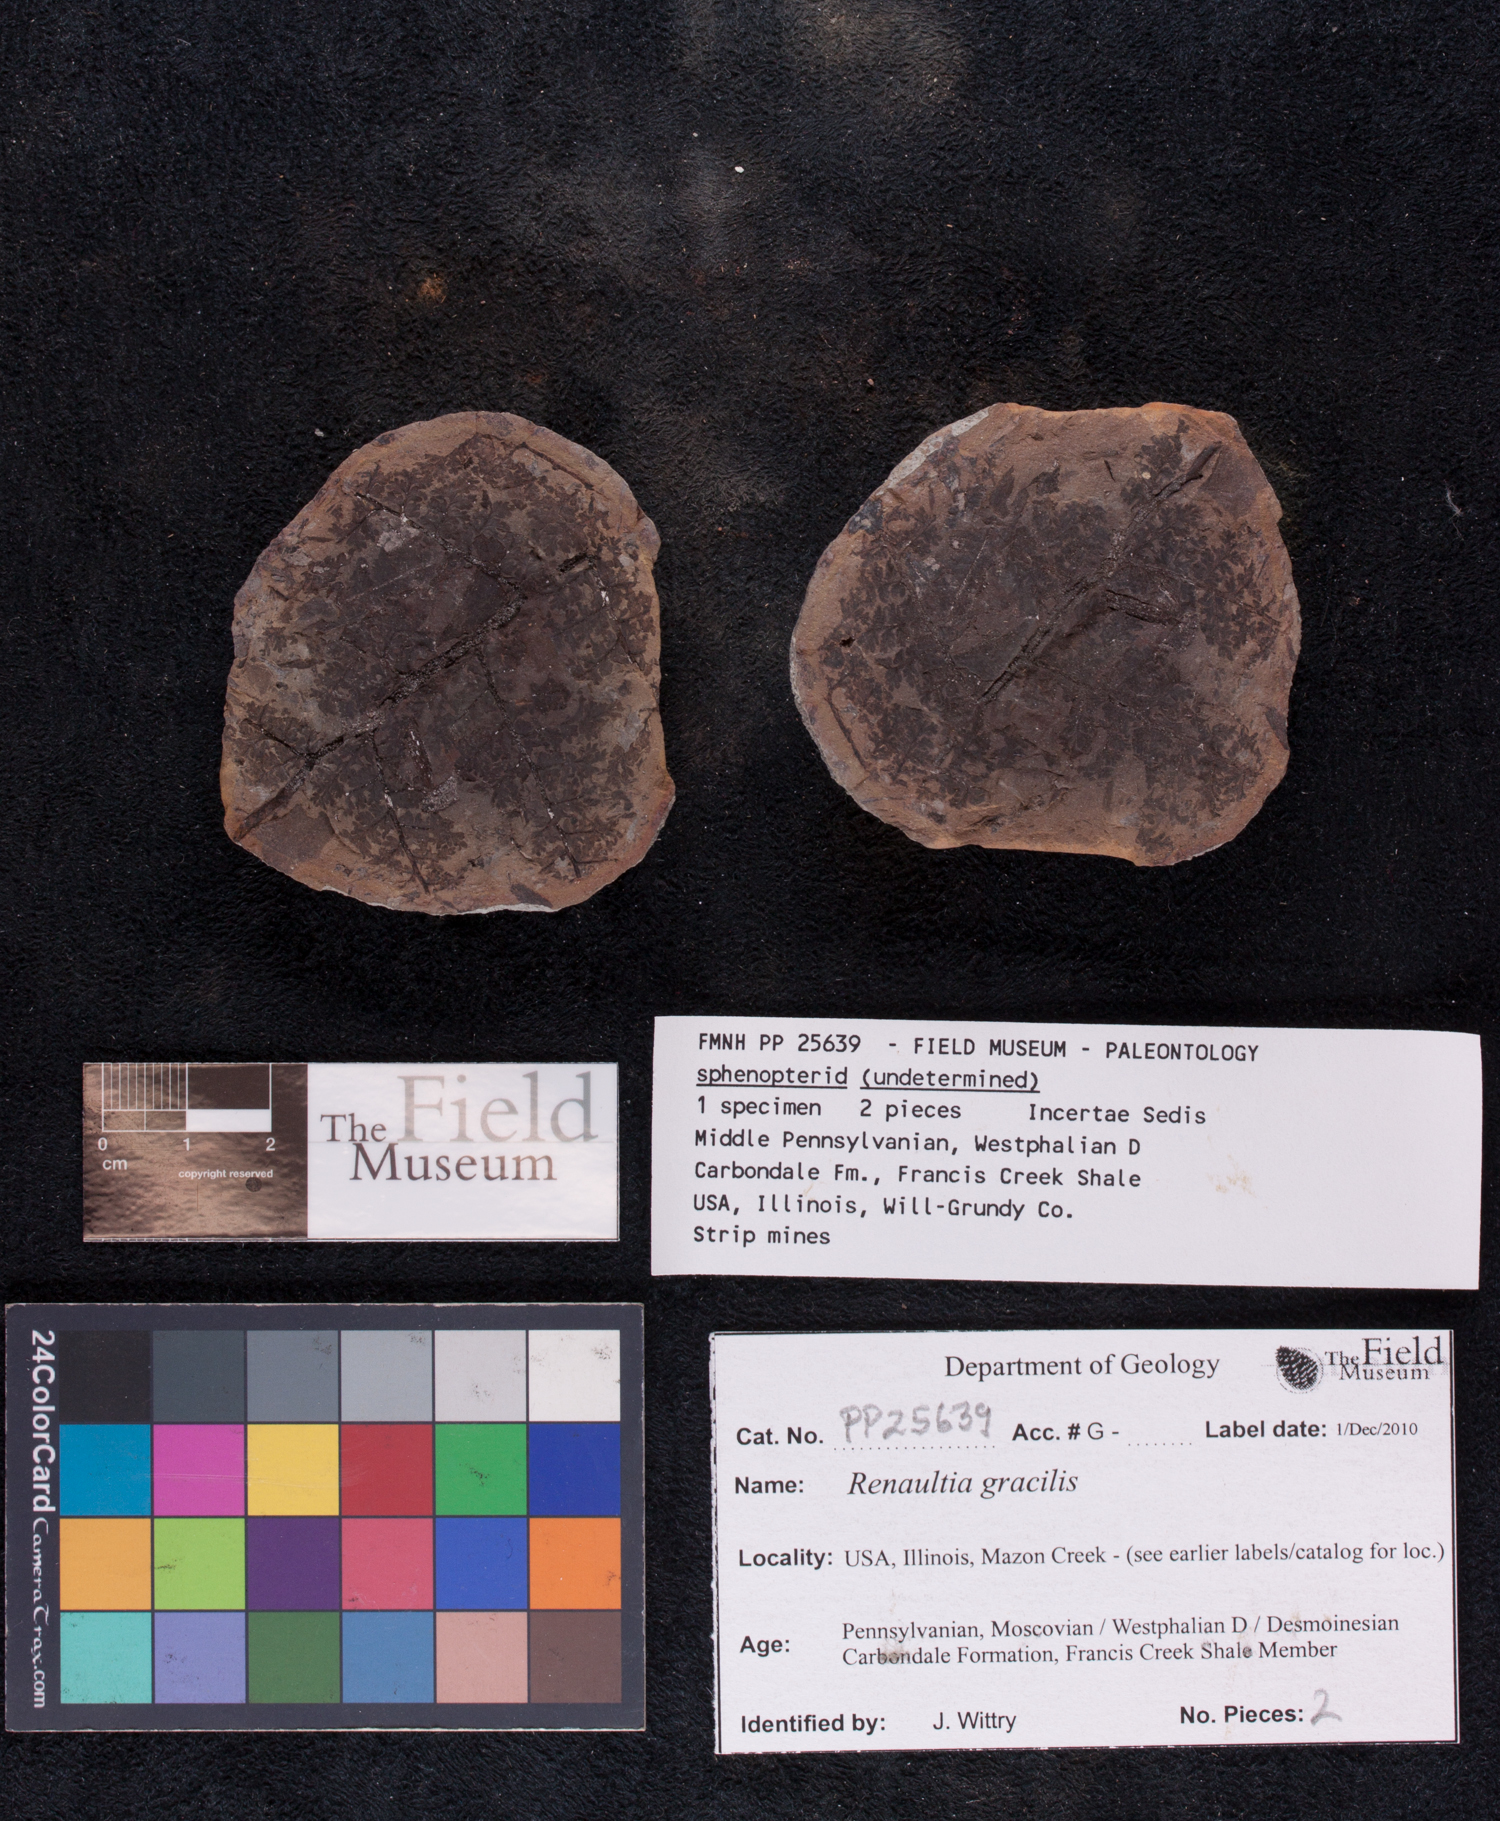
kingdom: Plantae
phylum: Tracheophyta
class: Polypodiopsida
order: Marattiales
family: Marattiaceae
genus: Renaultia
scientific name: Renaultia
